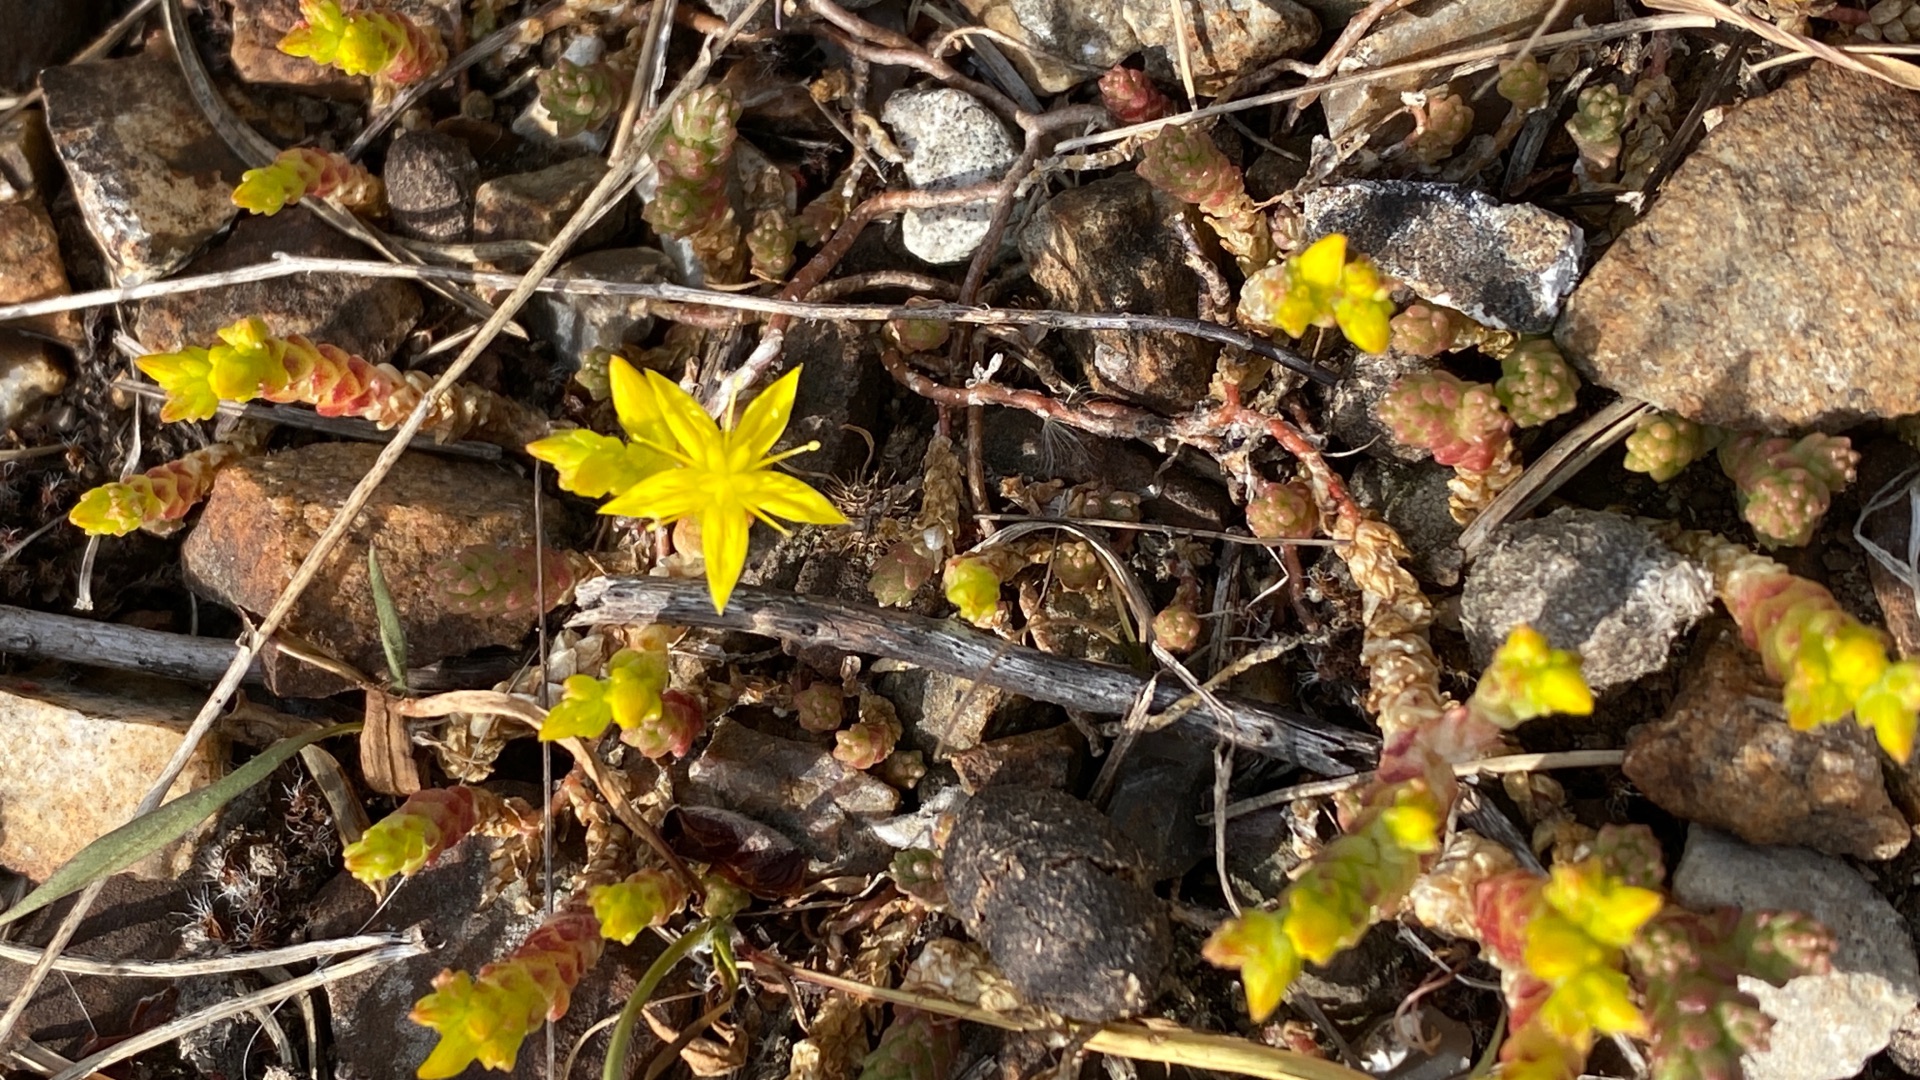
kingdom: Plantae
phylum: Tracheophyta
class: Magnoliopsida
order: Saxifragales
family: Crassulaceae
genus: Sedum
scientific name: Sedum acre
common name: Bidende stenurt
